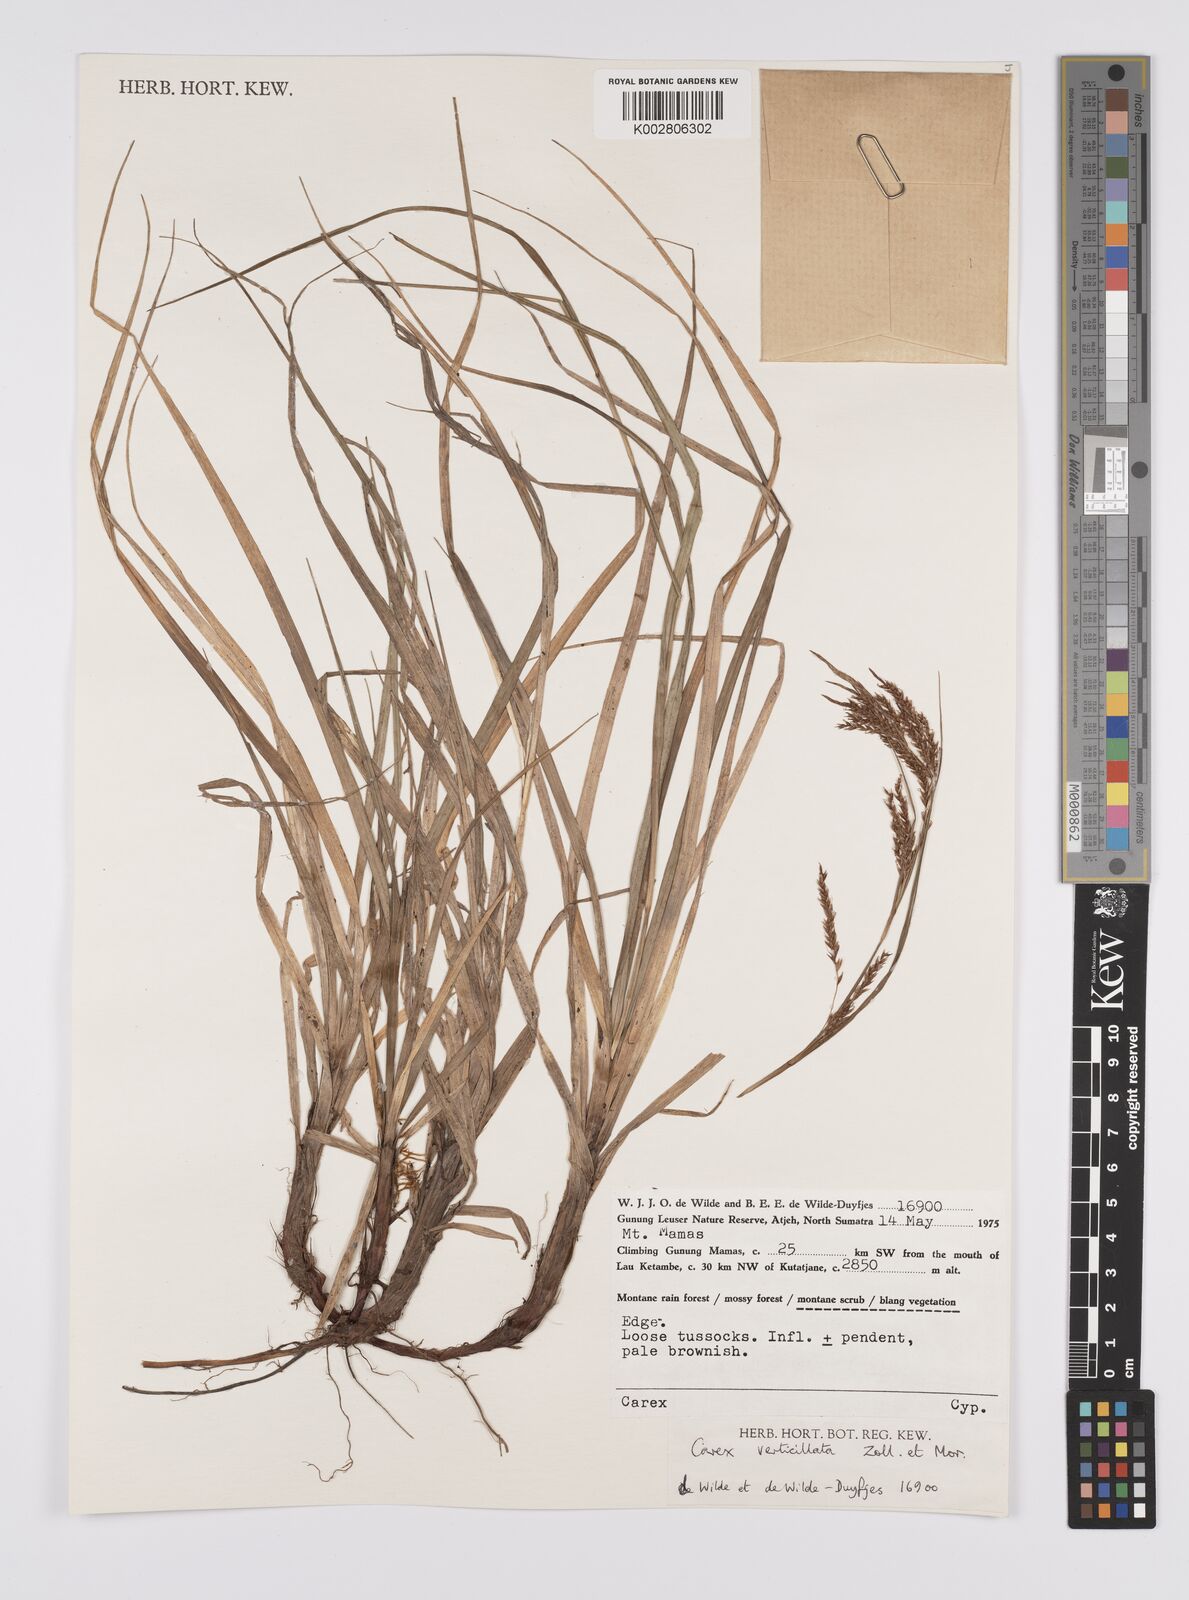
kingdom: Plantae
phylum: Tracheophyta
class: Liliopsida
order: Poales
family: Cyperaceae
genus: Carex
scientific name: Carex verticillata
